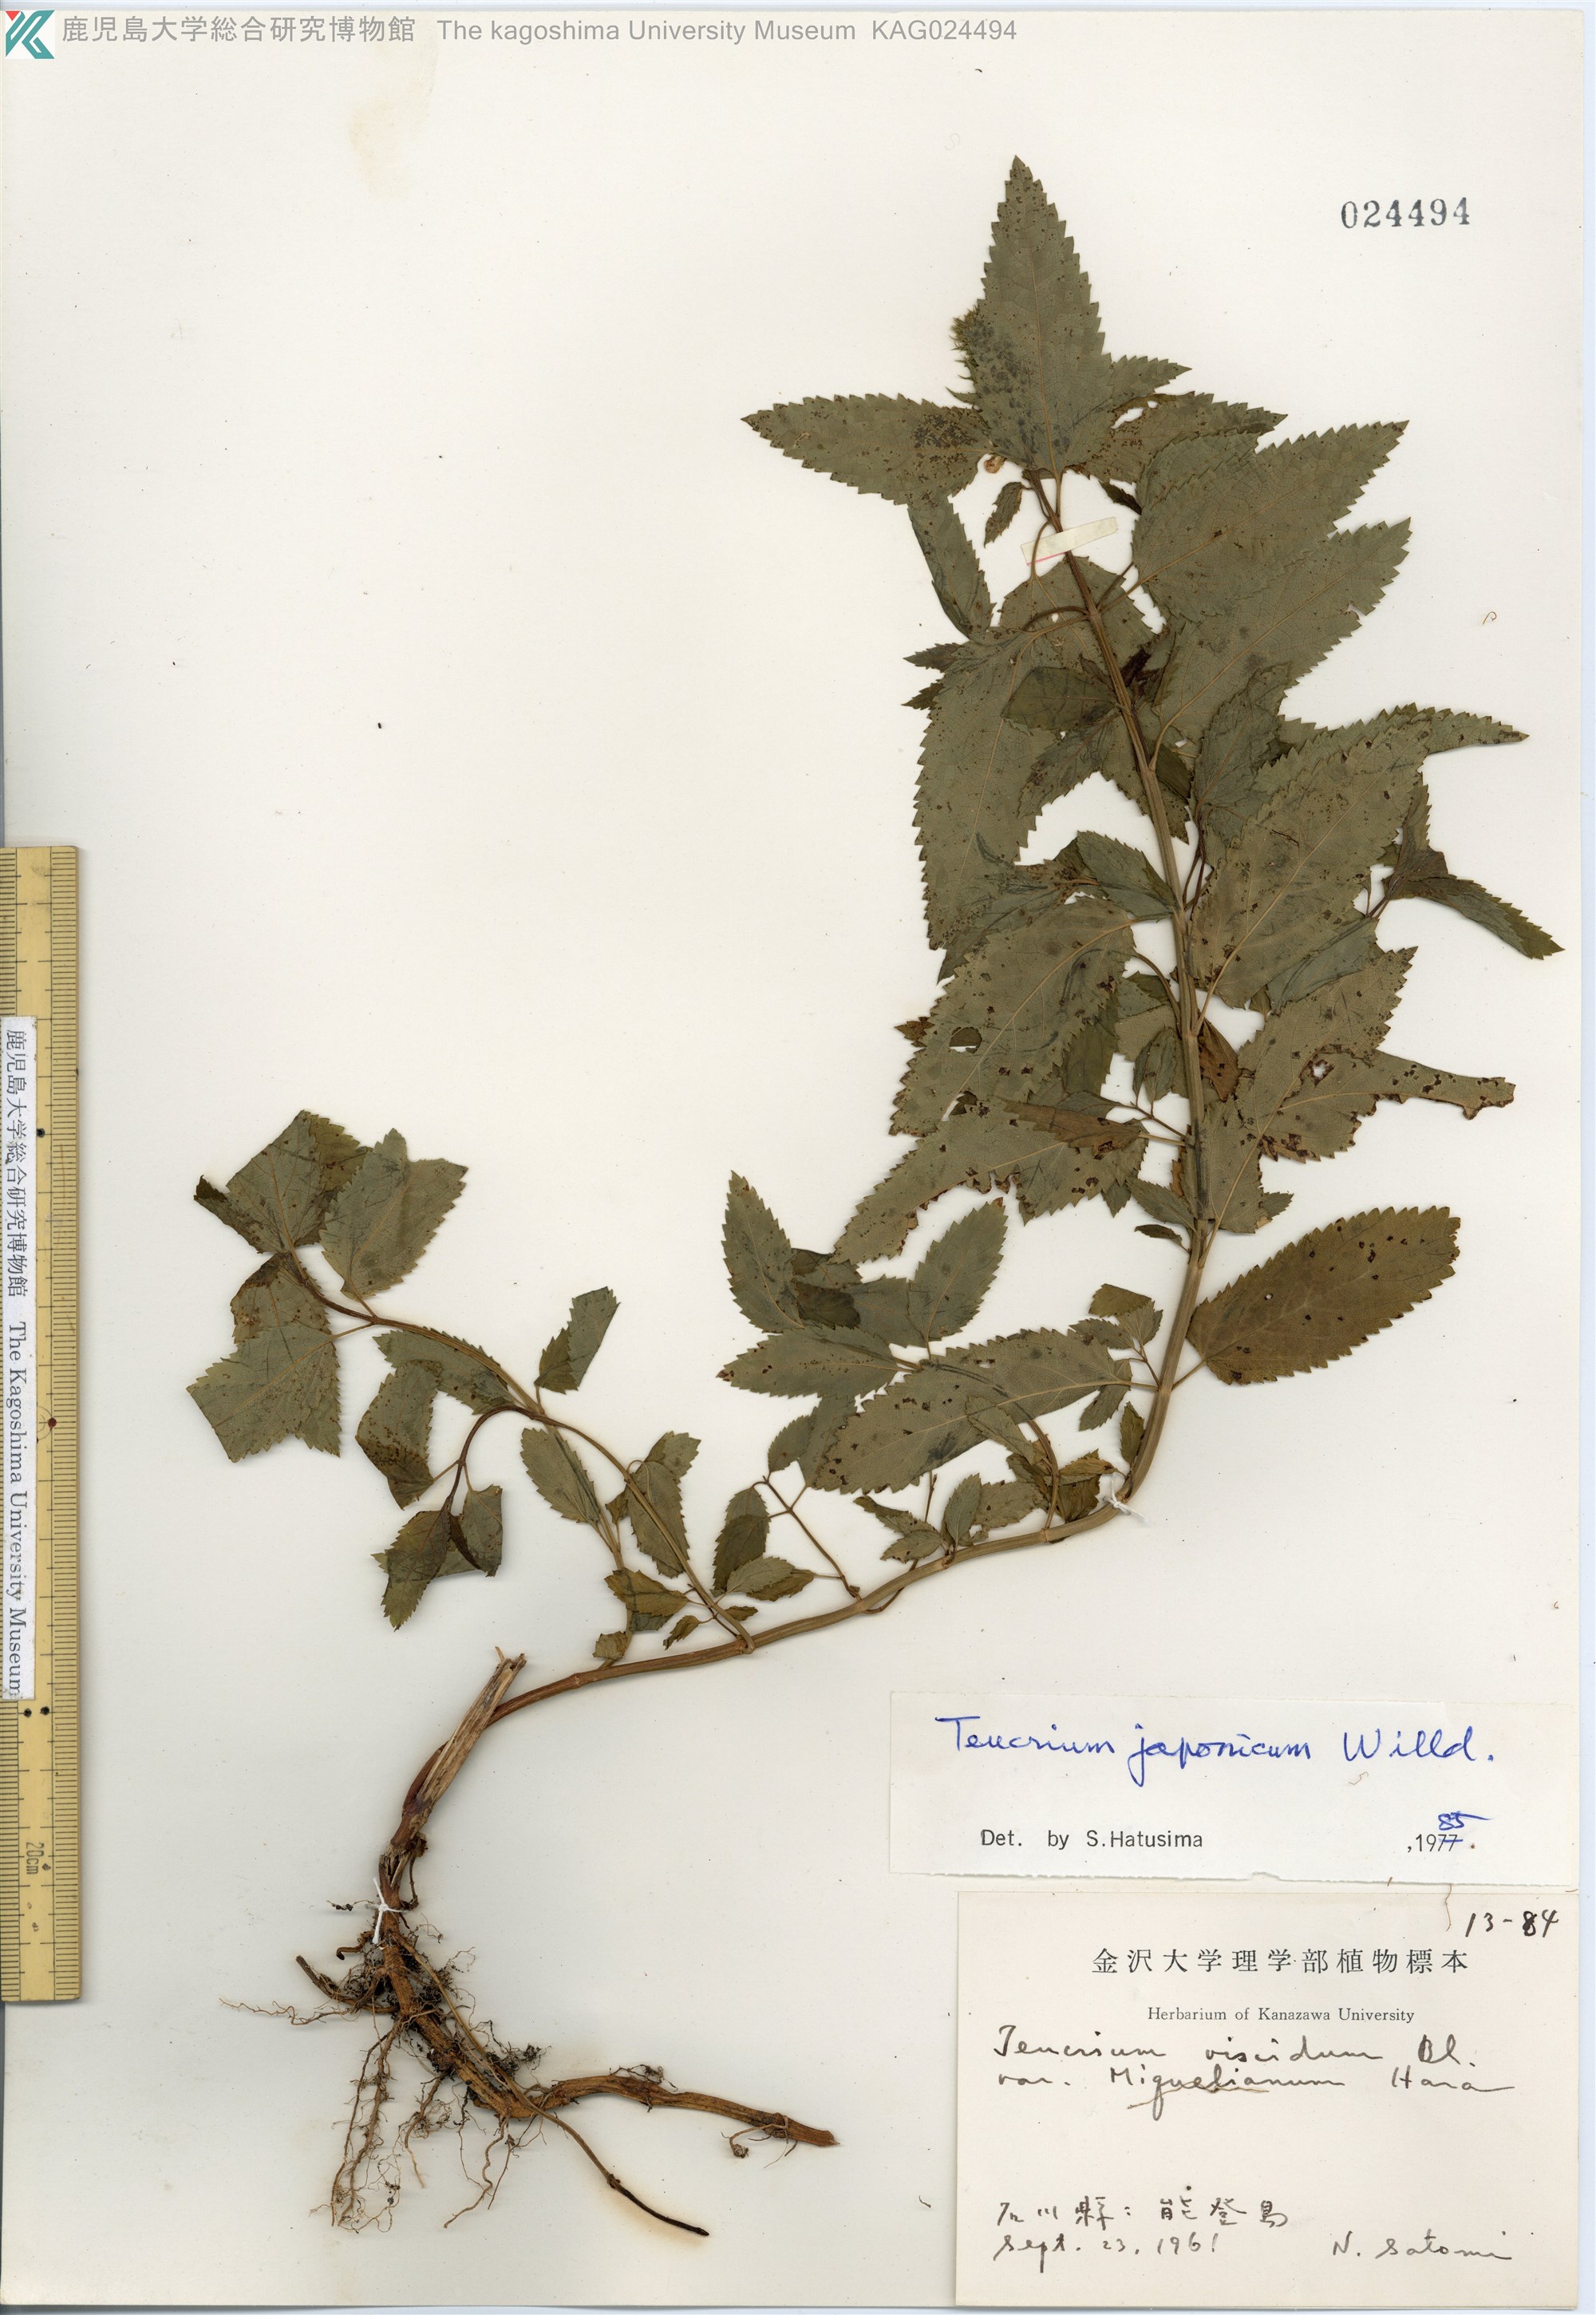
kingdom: Plantae
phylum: Tracheophyta
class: Magnoliopsida
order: Lamiales
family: Lamiaceae
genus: Teucrium
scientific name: Teucrium japonicum
